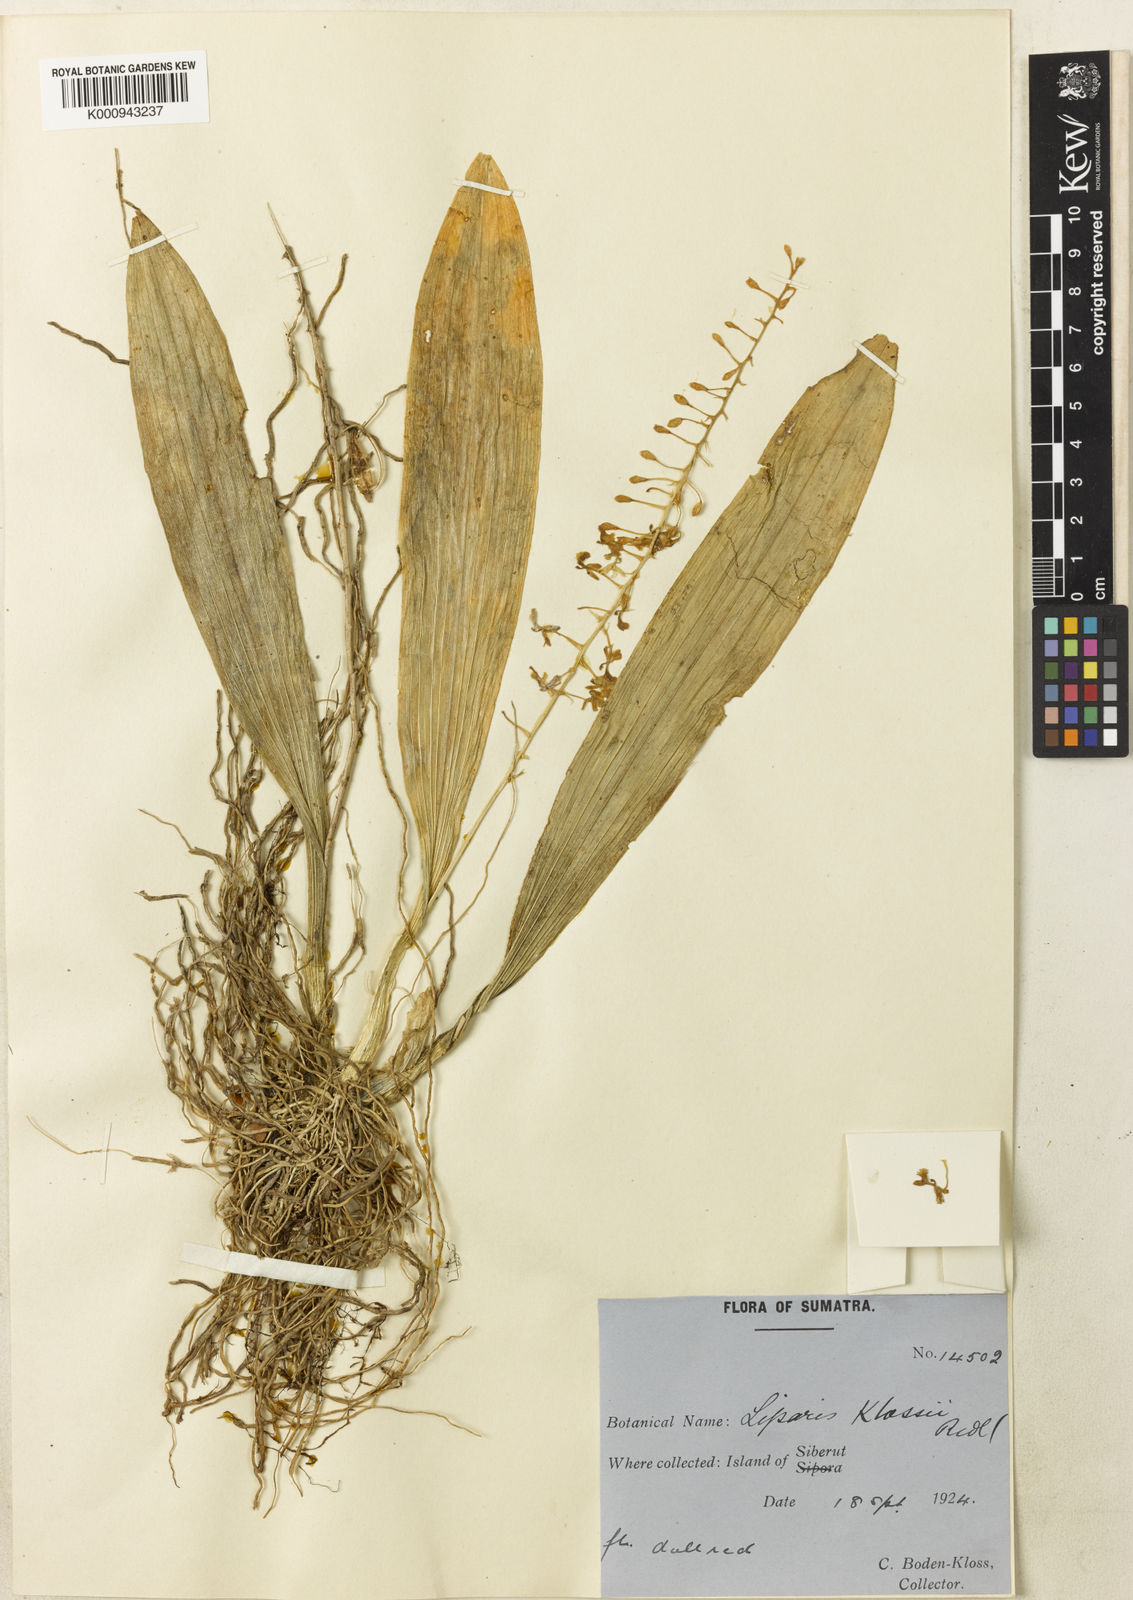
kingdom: Plantae
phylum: Tracheophyta
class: Liliopsida
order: Asparagales
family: Orchidaceae
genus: Liparis
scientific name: Liparis foetulenta
